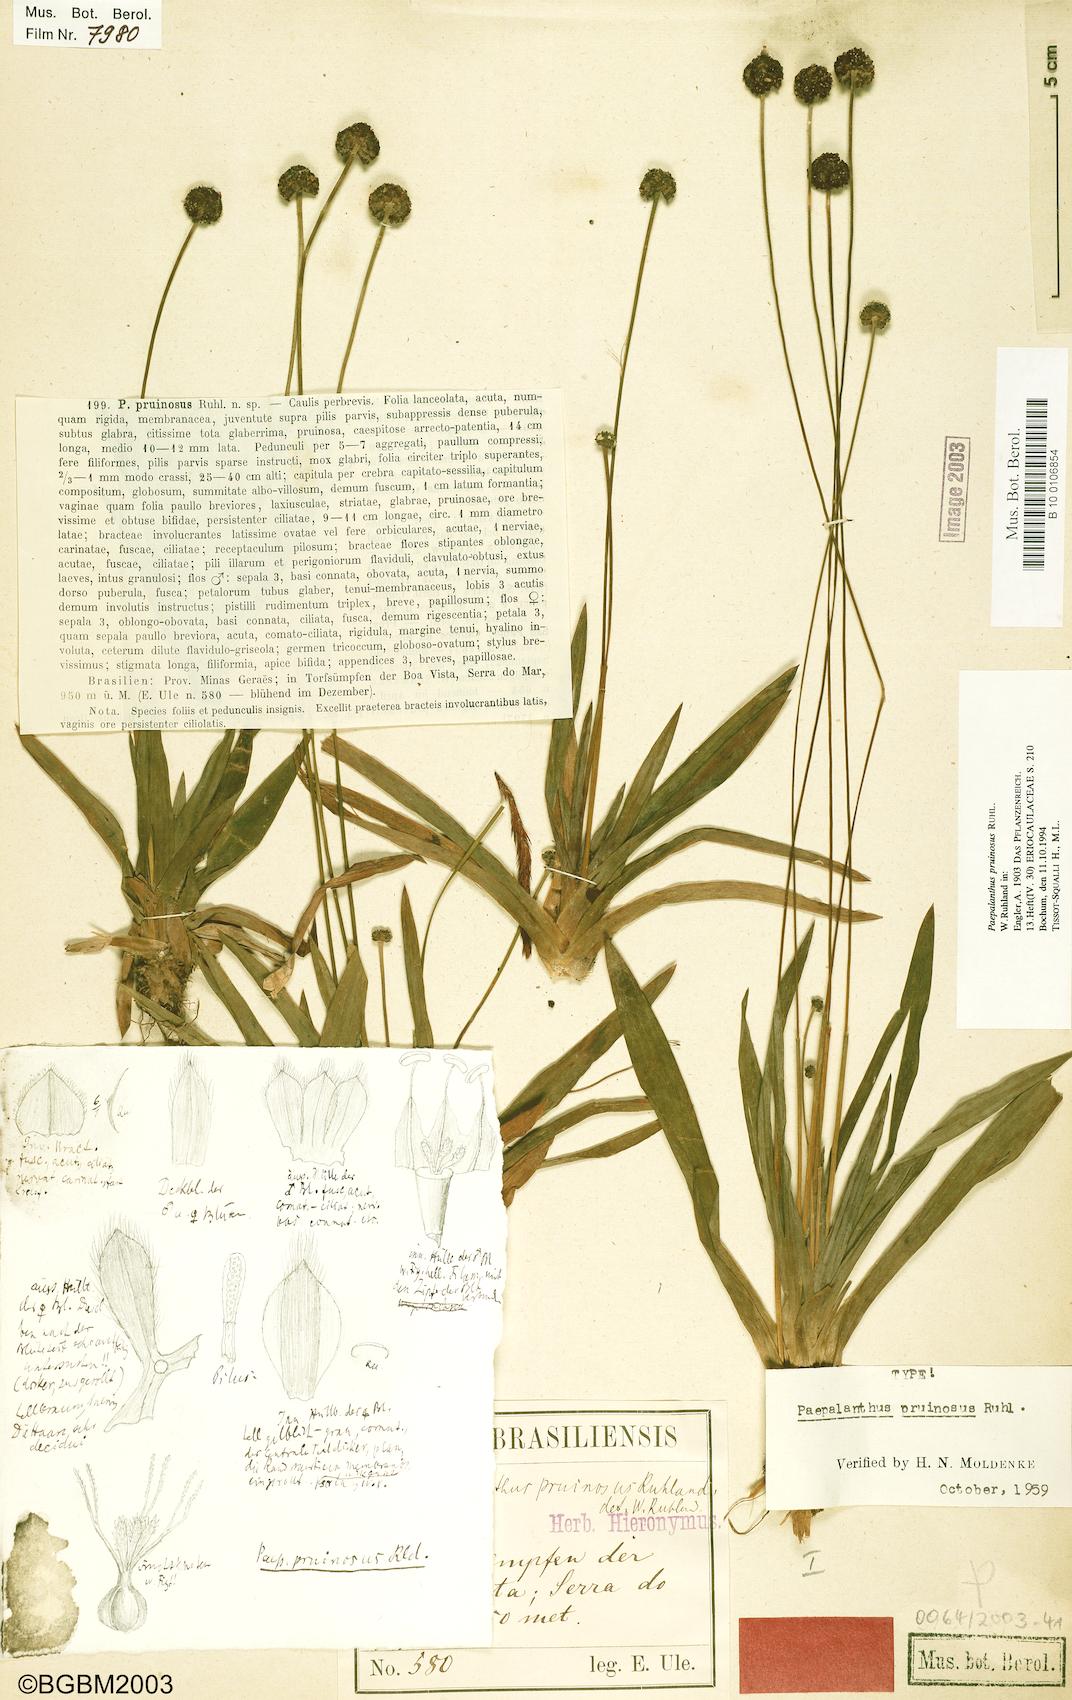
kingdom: Plantae
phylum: Tracheophyta
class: Liliopsida
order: Poales
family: Eriocaulaceae
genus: Paepalanthus
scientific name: Paepalanthus pruinosus
